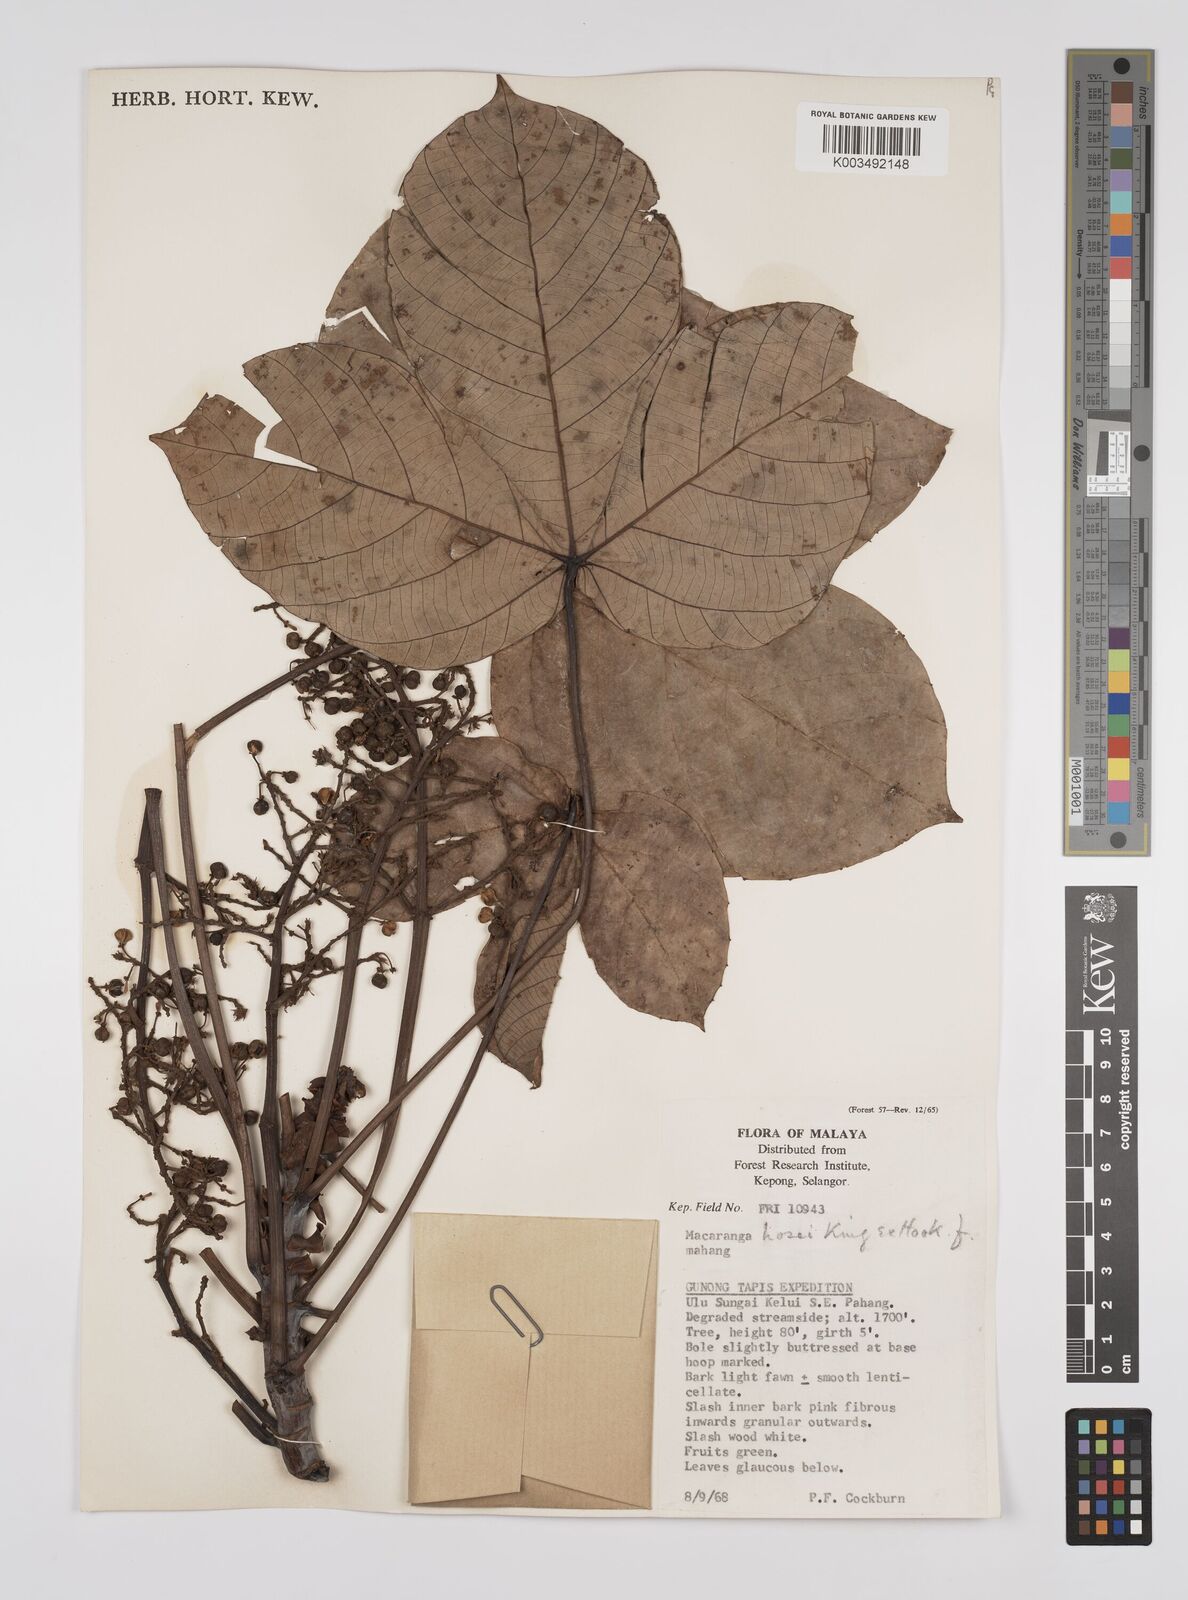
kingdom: Plantae
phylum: Tracheophyta
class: Magnoliopsida
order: Malpighiales
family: Euphorbiaceae
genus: Macaranga
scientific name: Macaranga hosei
